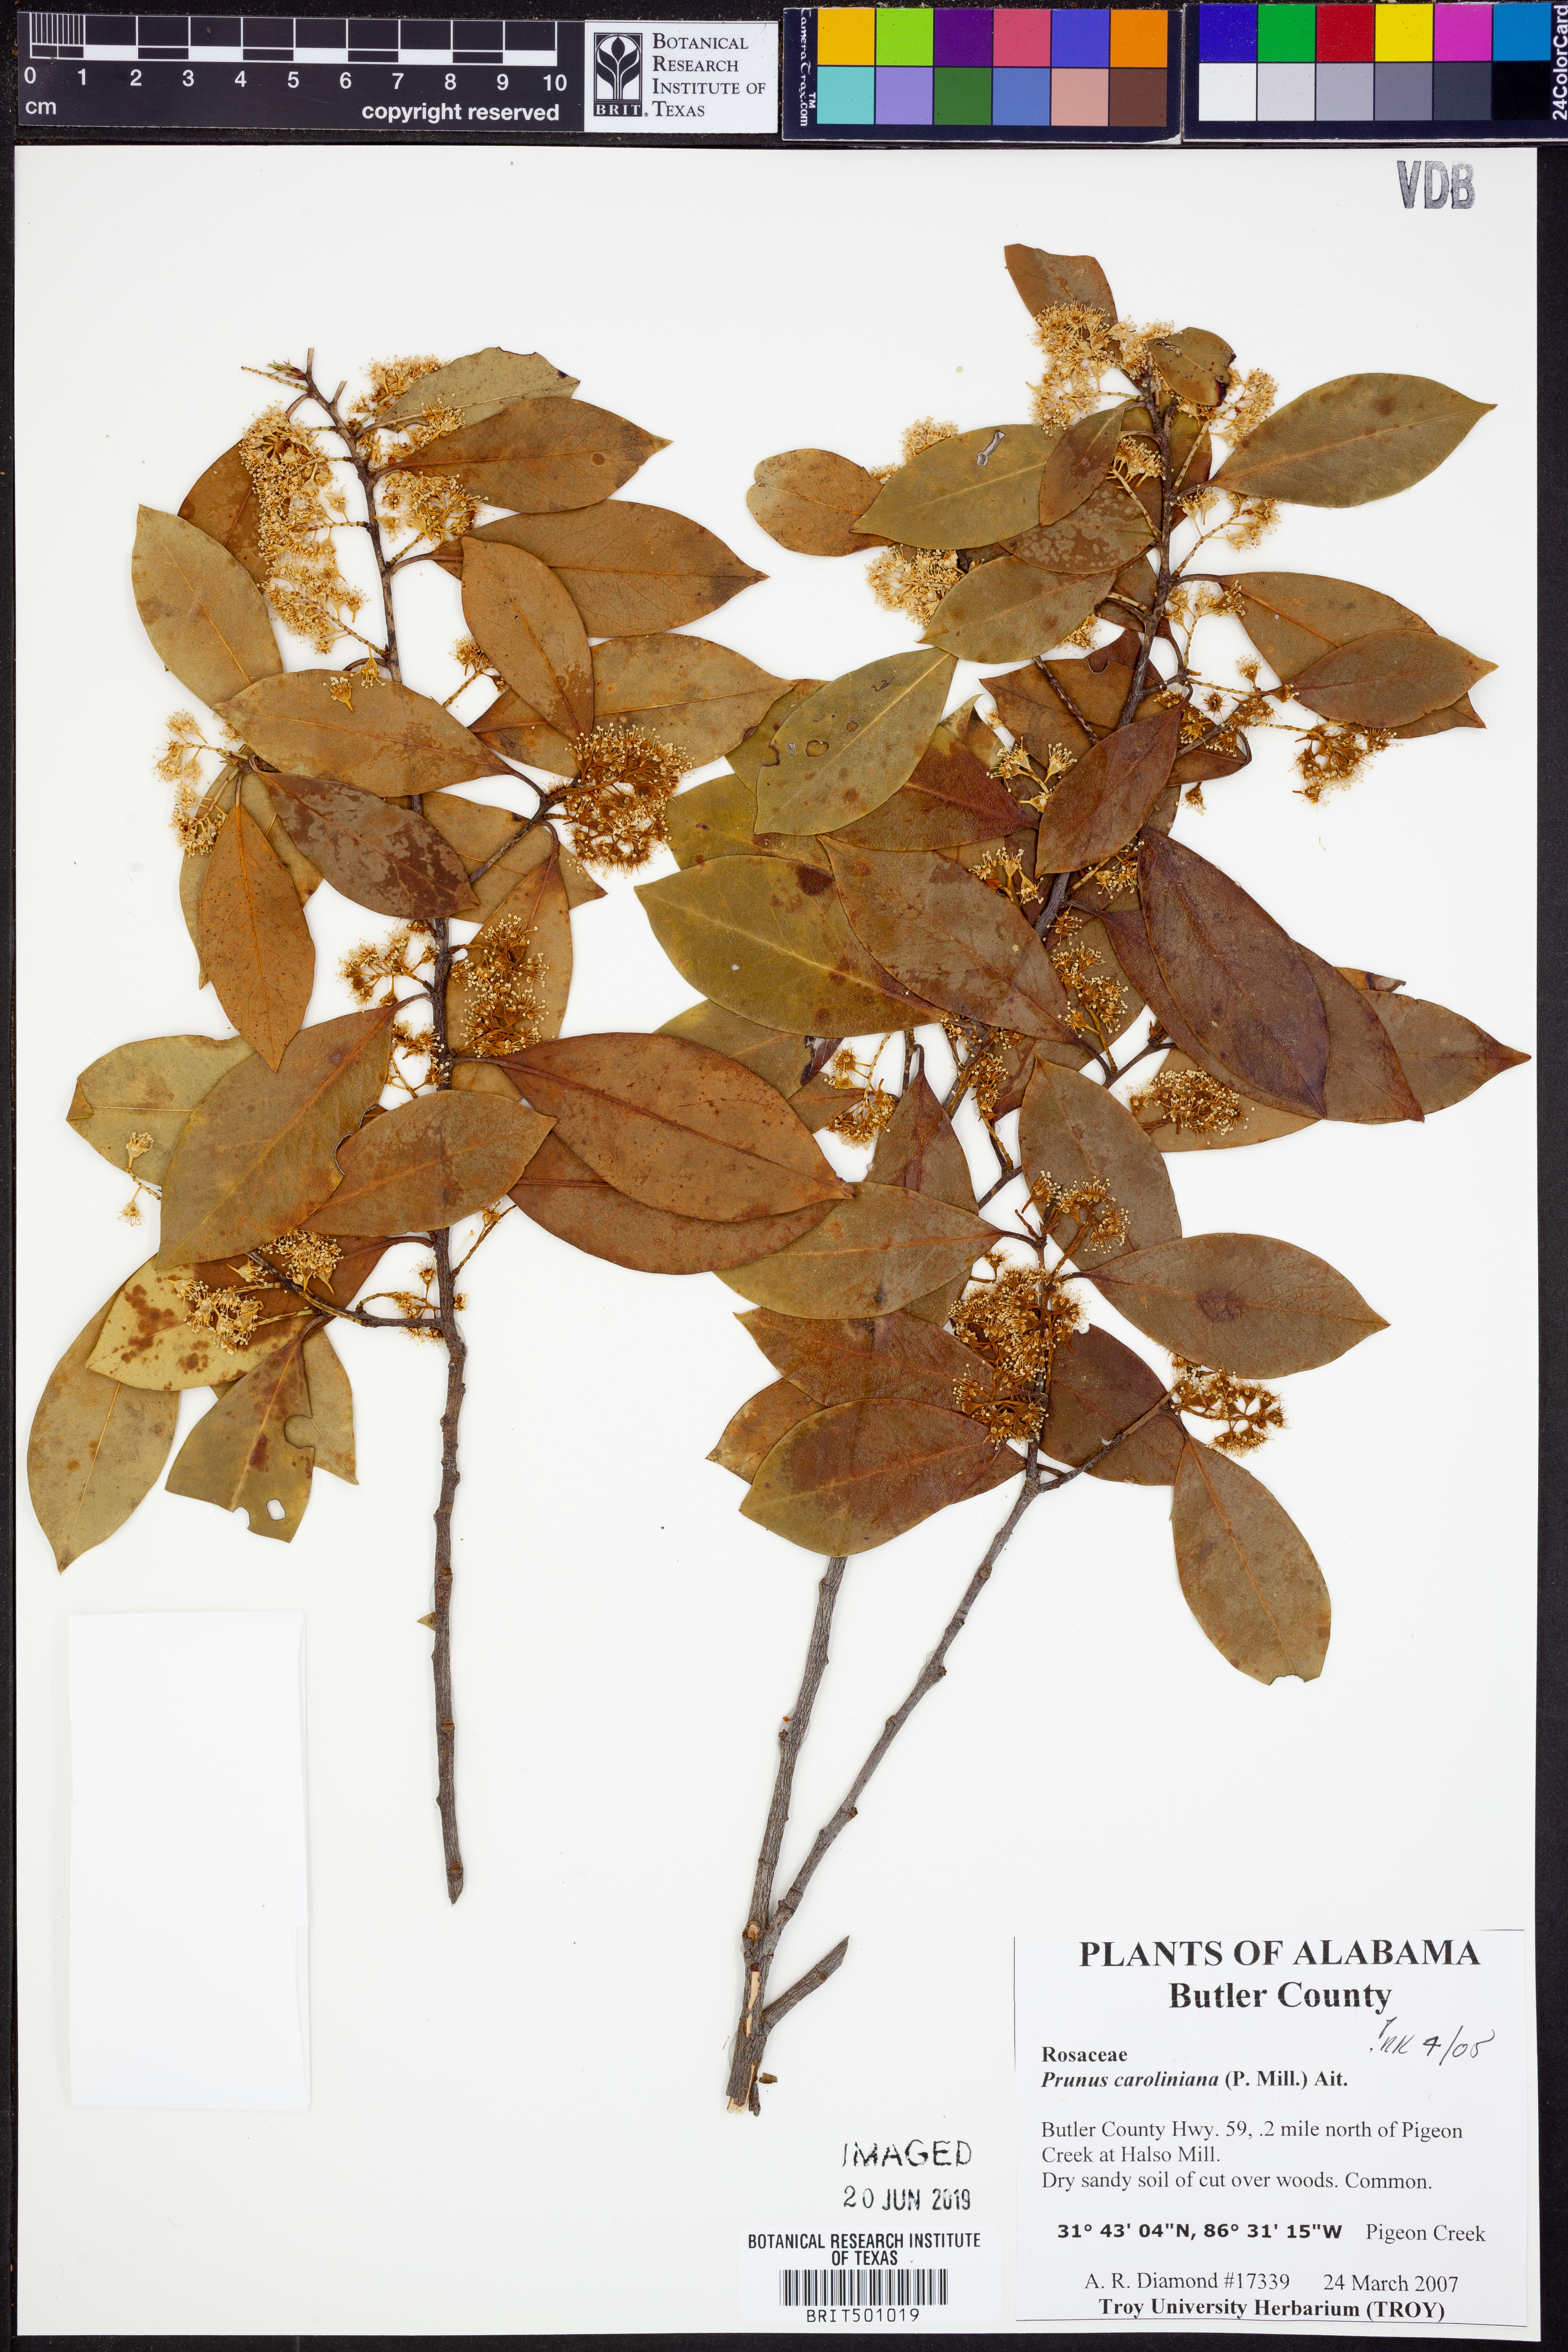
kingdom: Plantae
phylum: Tracheophyta
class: Magnoliopsida
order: Rosales
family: Rosaceae
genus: Prunus
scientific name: Prunus caroliniana
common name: Carolina laurel cherry
